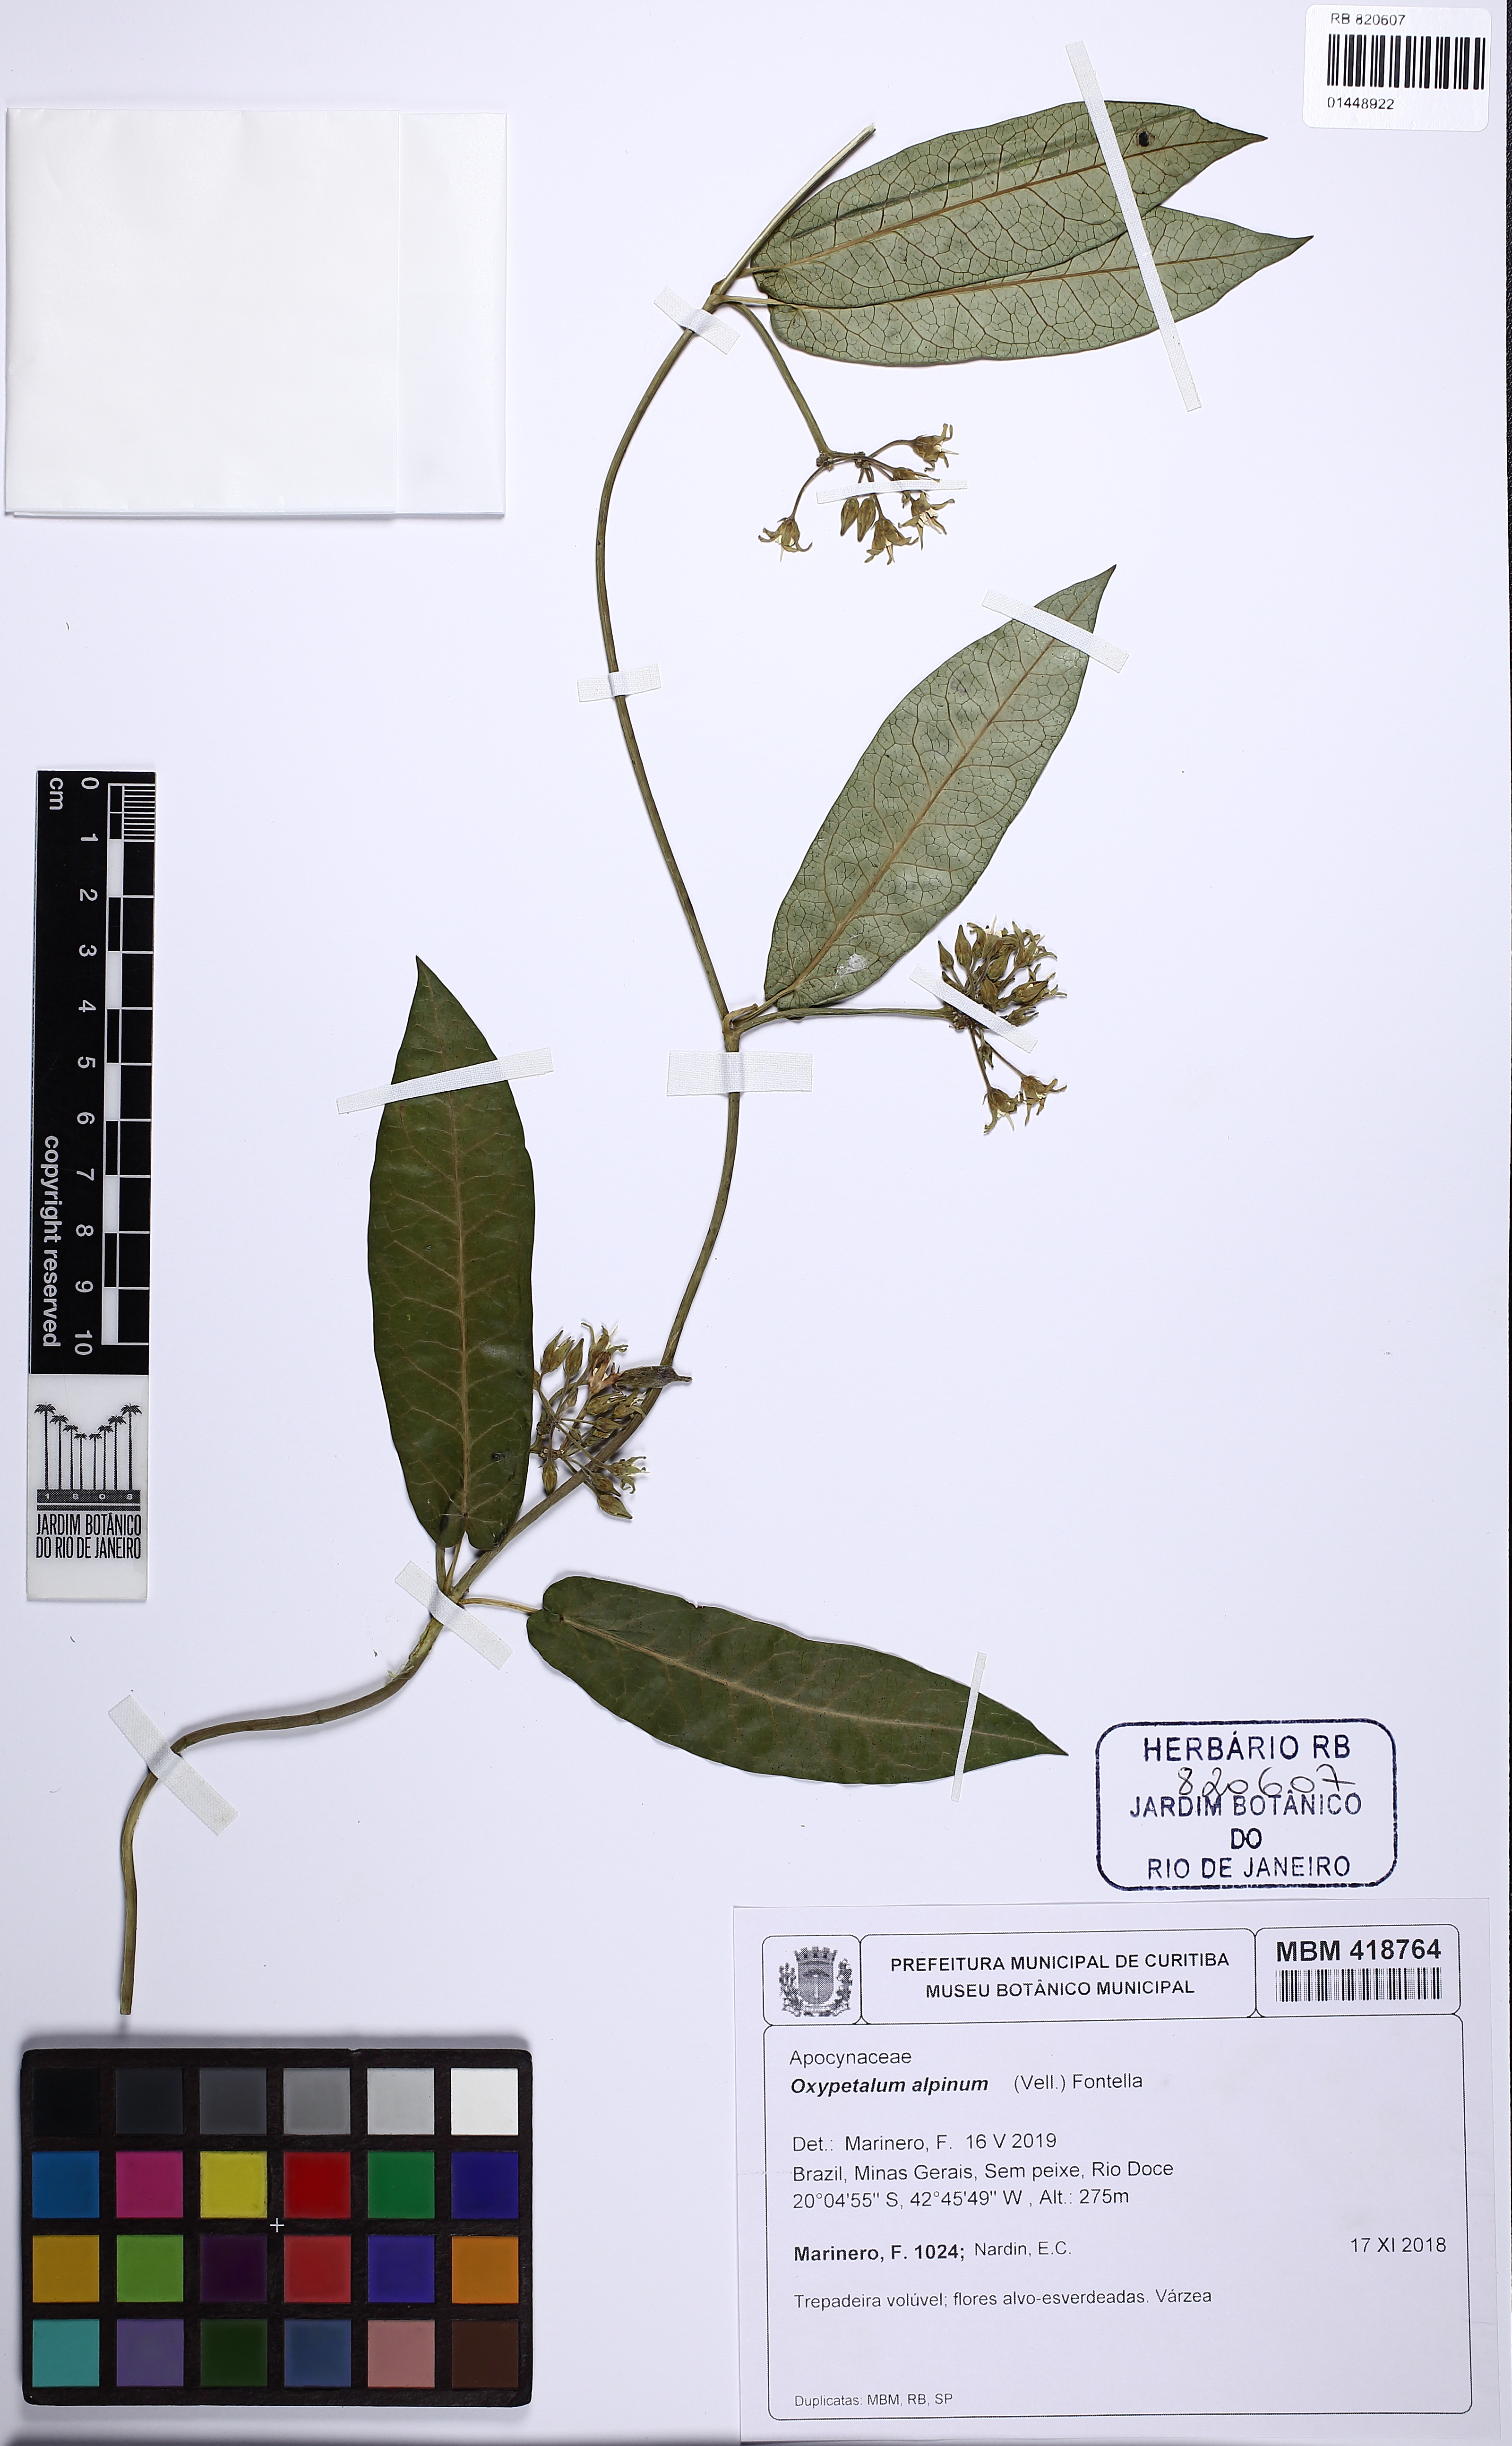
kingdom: Plantae
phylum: Tracheophyta
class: Magnoliopsida
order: Gentianales
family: Apocynaceae
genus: Oxypetalum
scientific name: Oxypetalum alpinum
